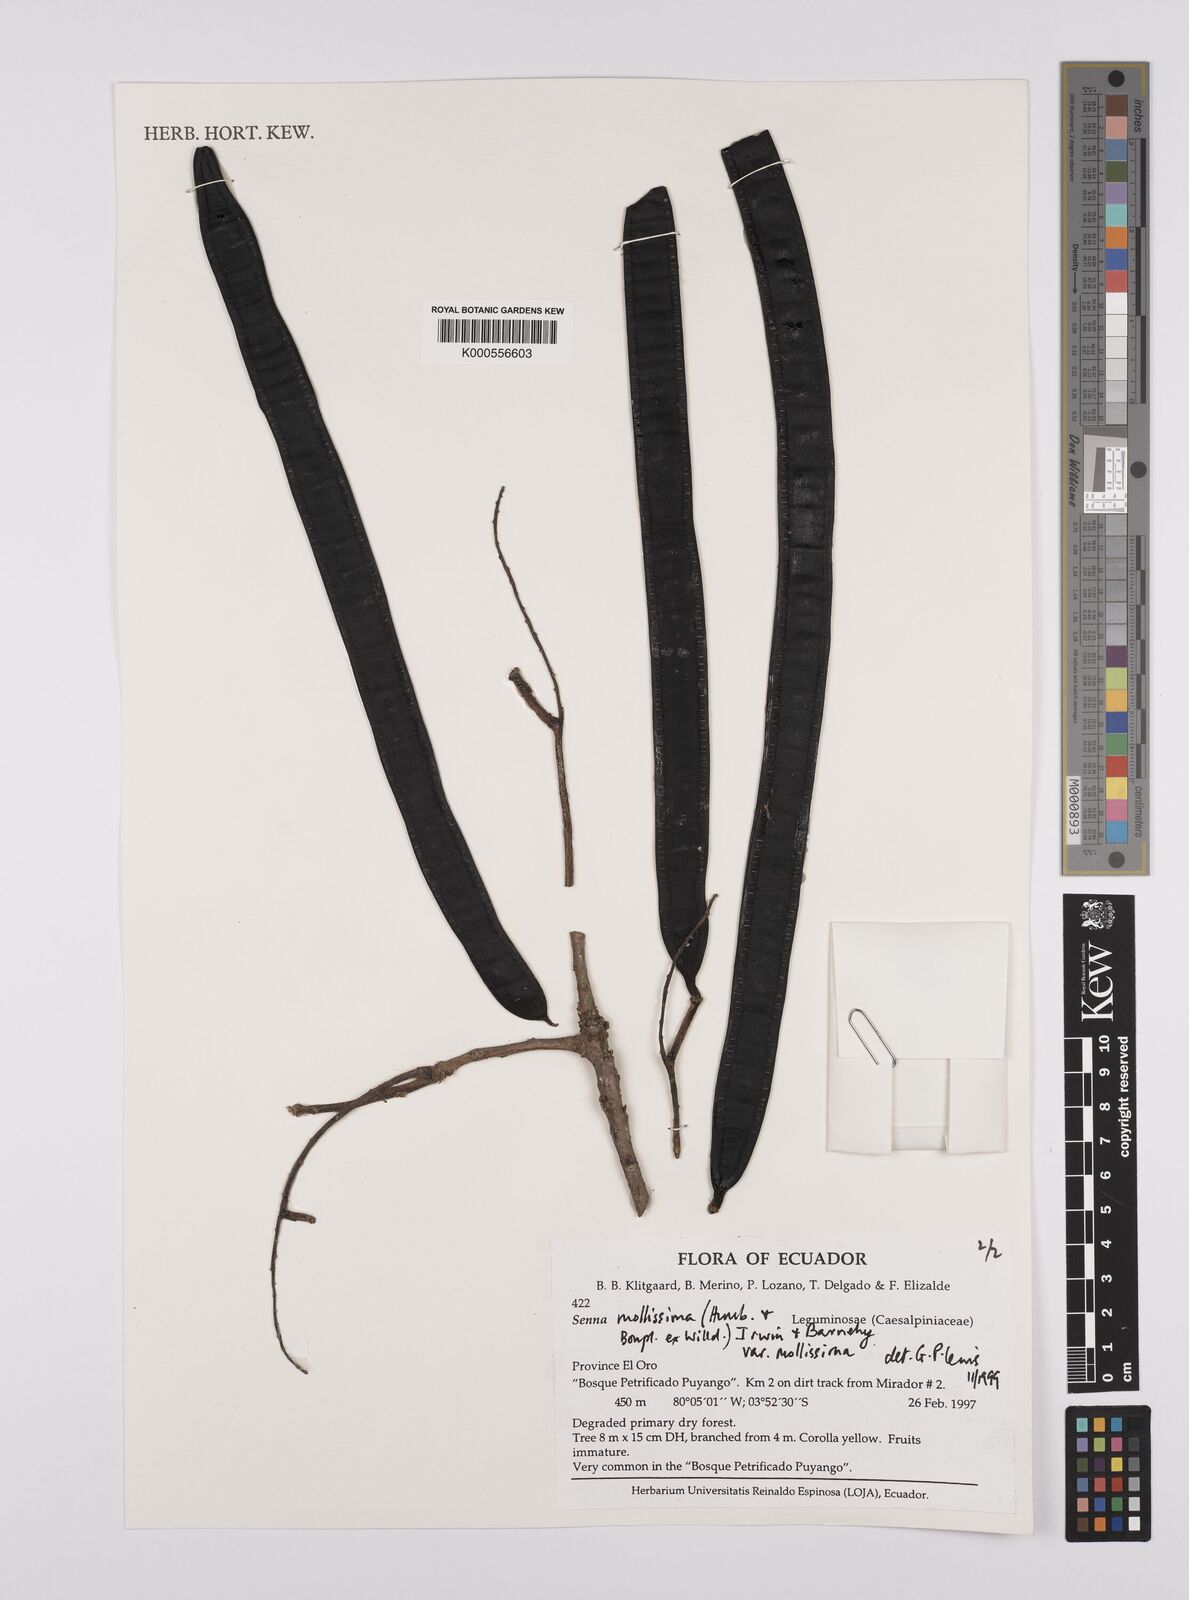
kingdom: Plantae
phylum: Tracheophyta
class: Magnoliopsida
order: Fabales
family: Fabaceae
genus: Senna
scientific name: Senna mollissima
